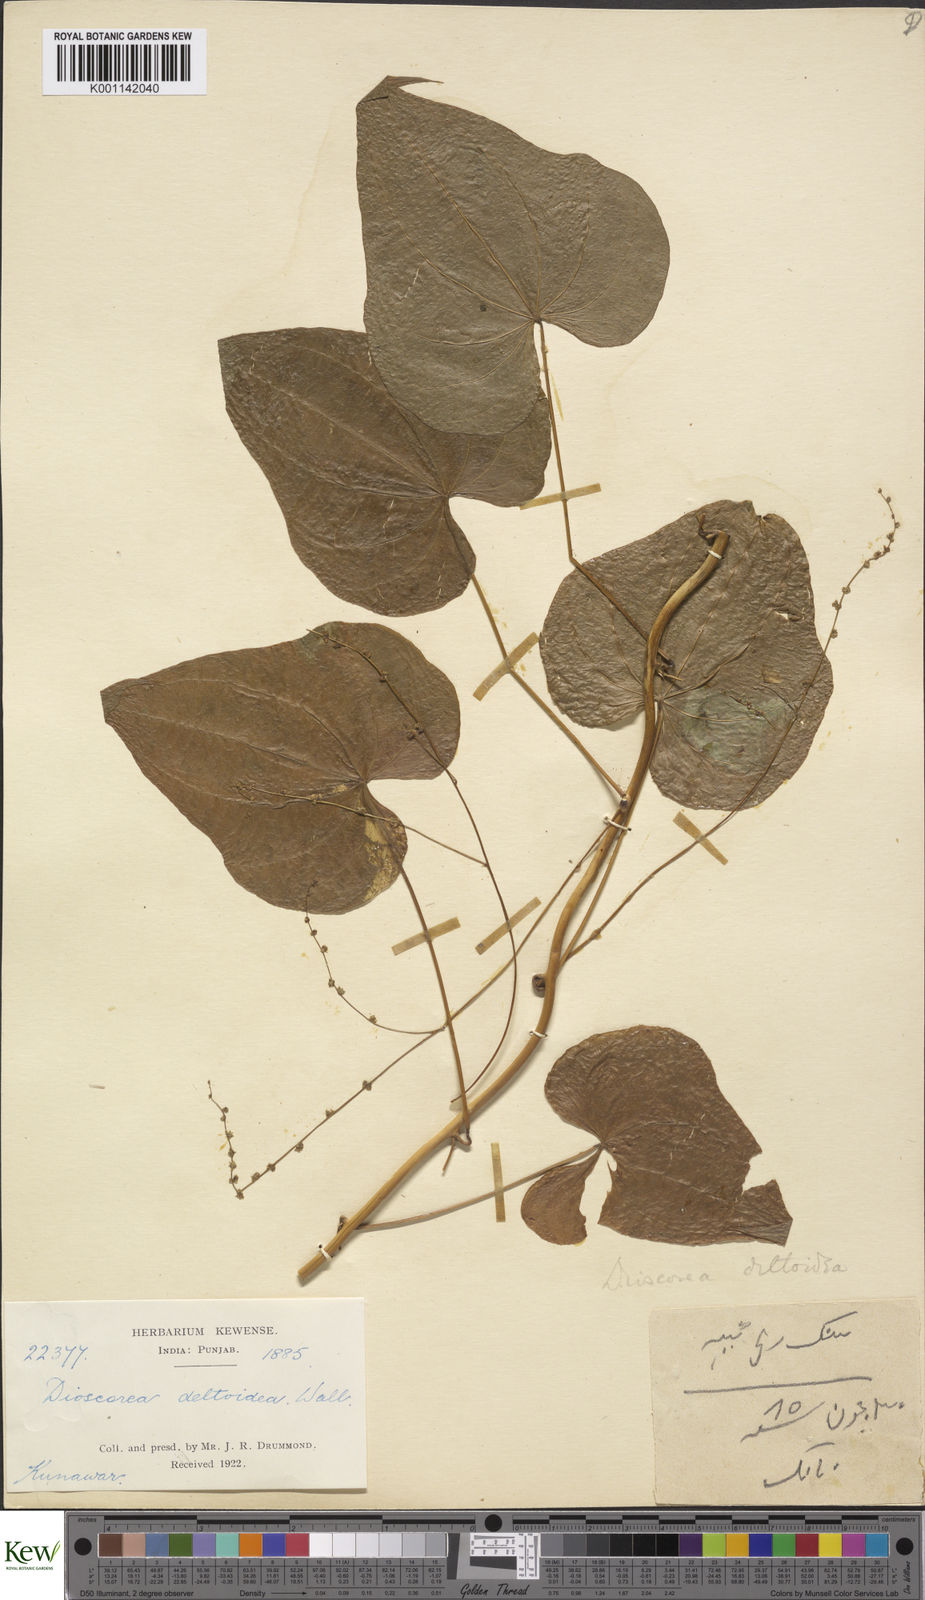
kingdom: Plantae
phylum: Tracheophyta
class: Liliopsida
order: Dioscoreales
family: Dioscoreaceae
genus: Dioscorea
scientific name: Dioscorea deltoidea
